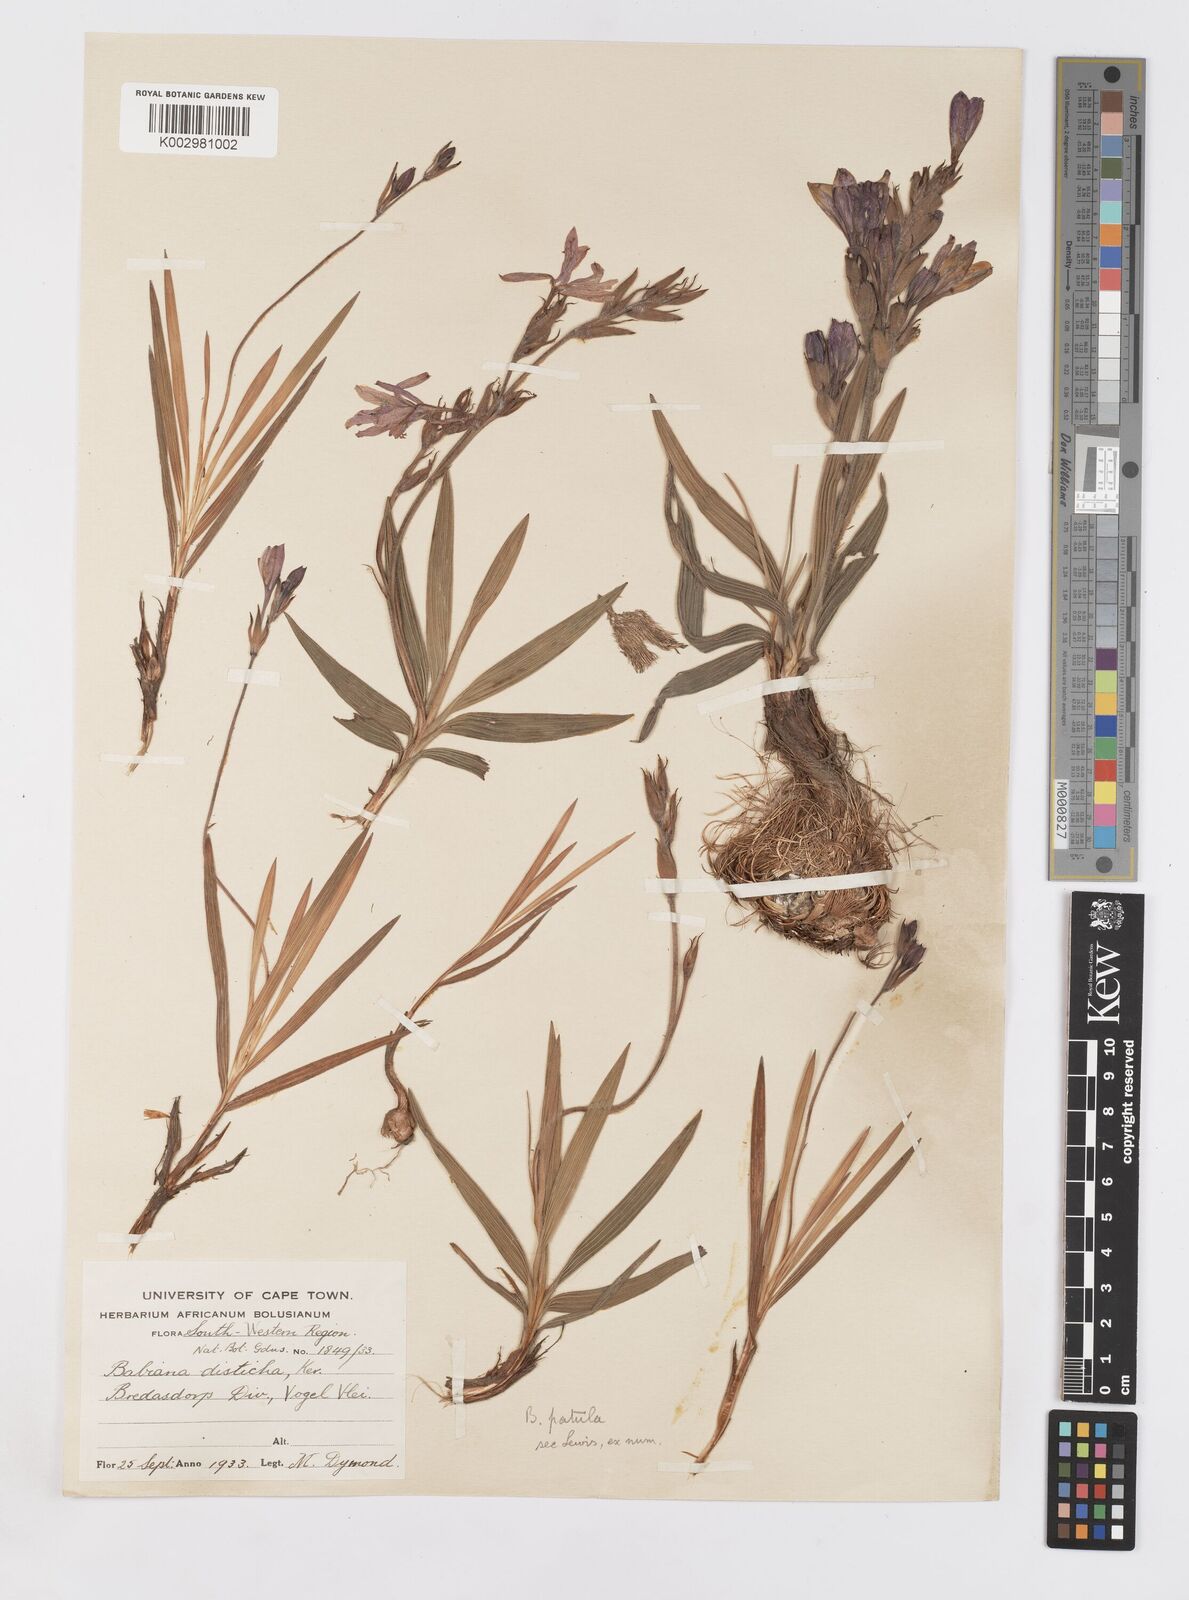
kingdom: Plantae
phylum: Tracheophyta
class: Liliopsida
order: Asparagales
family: Iridaceae
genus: Babiana
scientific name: Babiana patula
